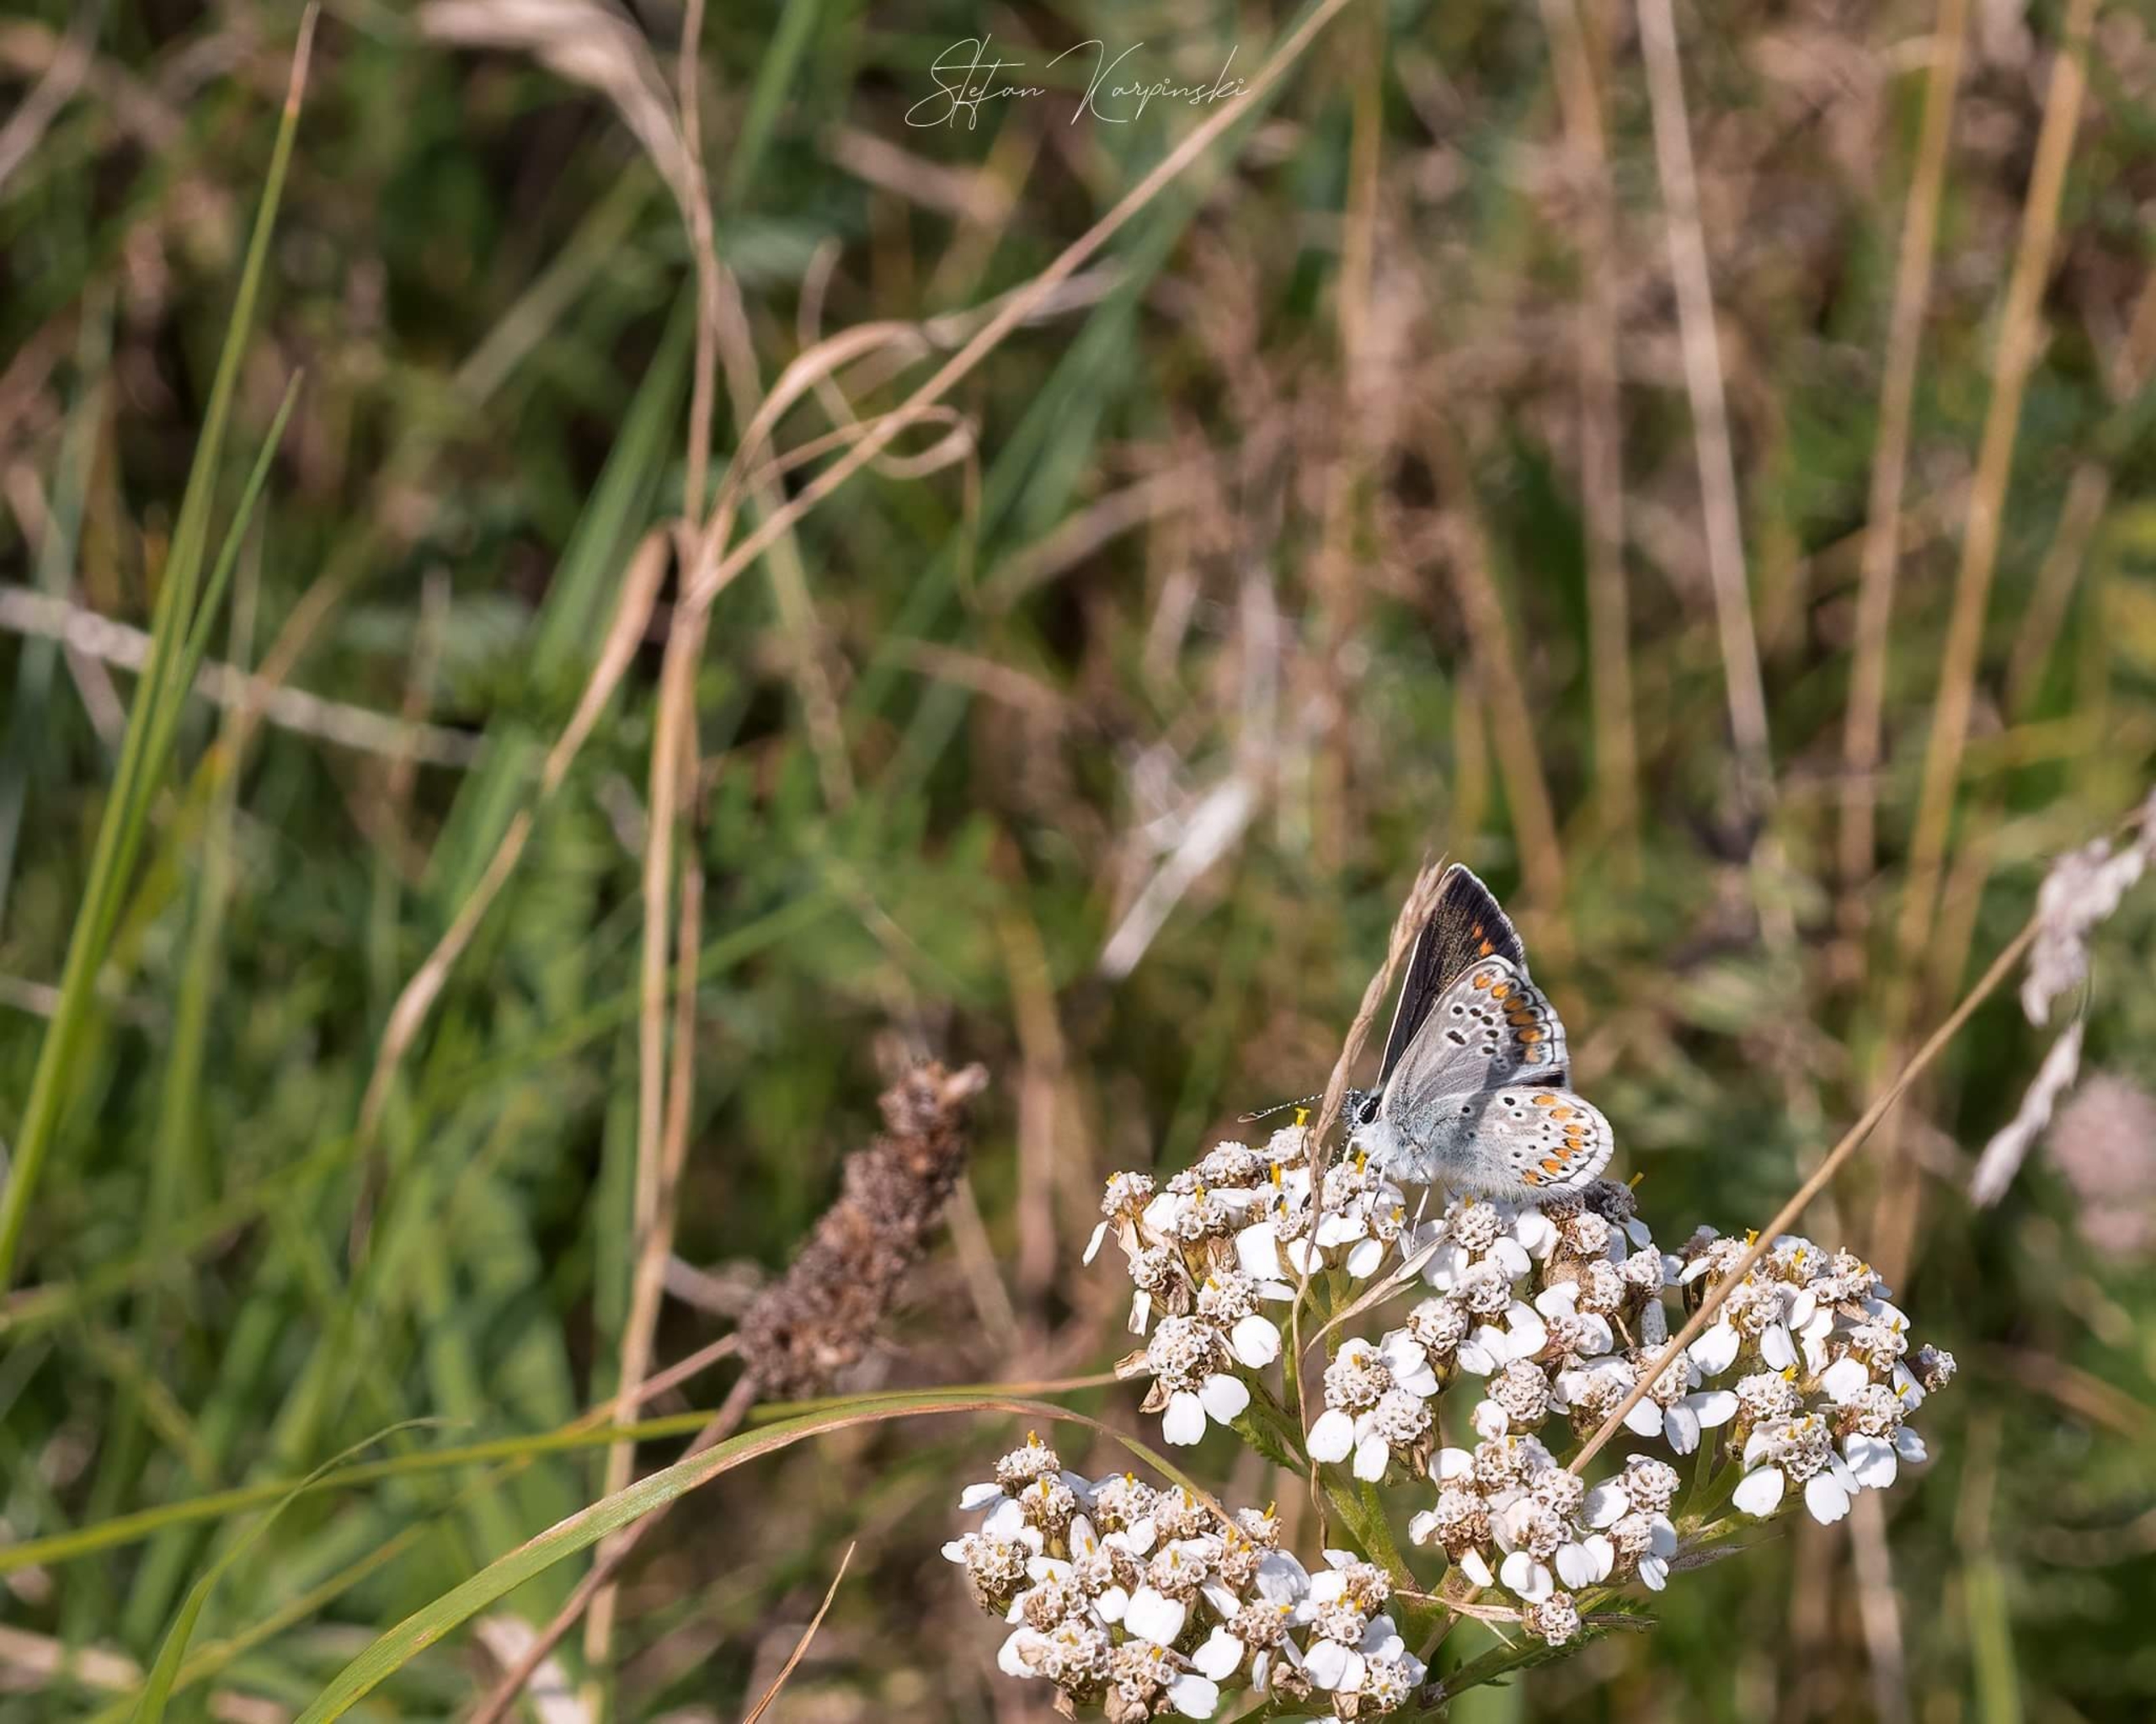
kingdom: Animalia
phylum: Arthropoda
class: Insecta
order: Lepidoptera
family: Lycaenidae
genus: Aricia
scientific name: Aricia agestis
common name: Rødplettet blåfugl
